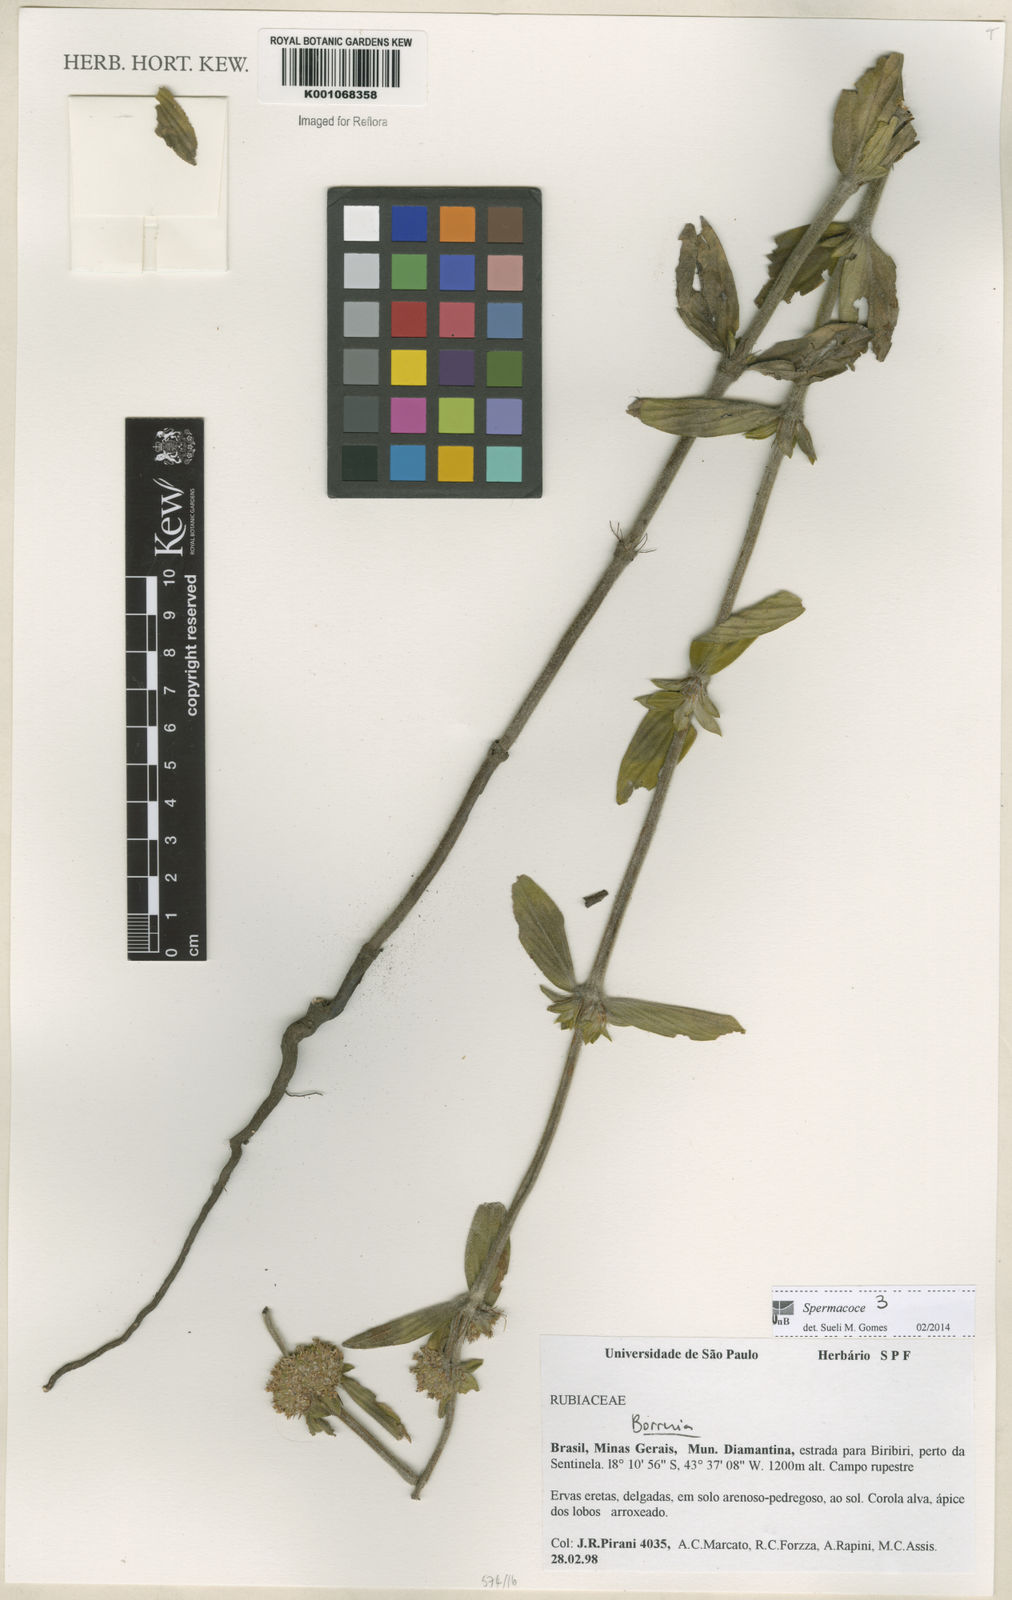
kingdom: Plantae
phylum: Tracheophyta
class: Magnoliopsida
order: Gentianales
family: Rubiaceae
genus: Spermacoce
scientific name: Spermacoce
